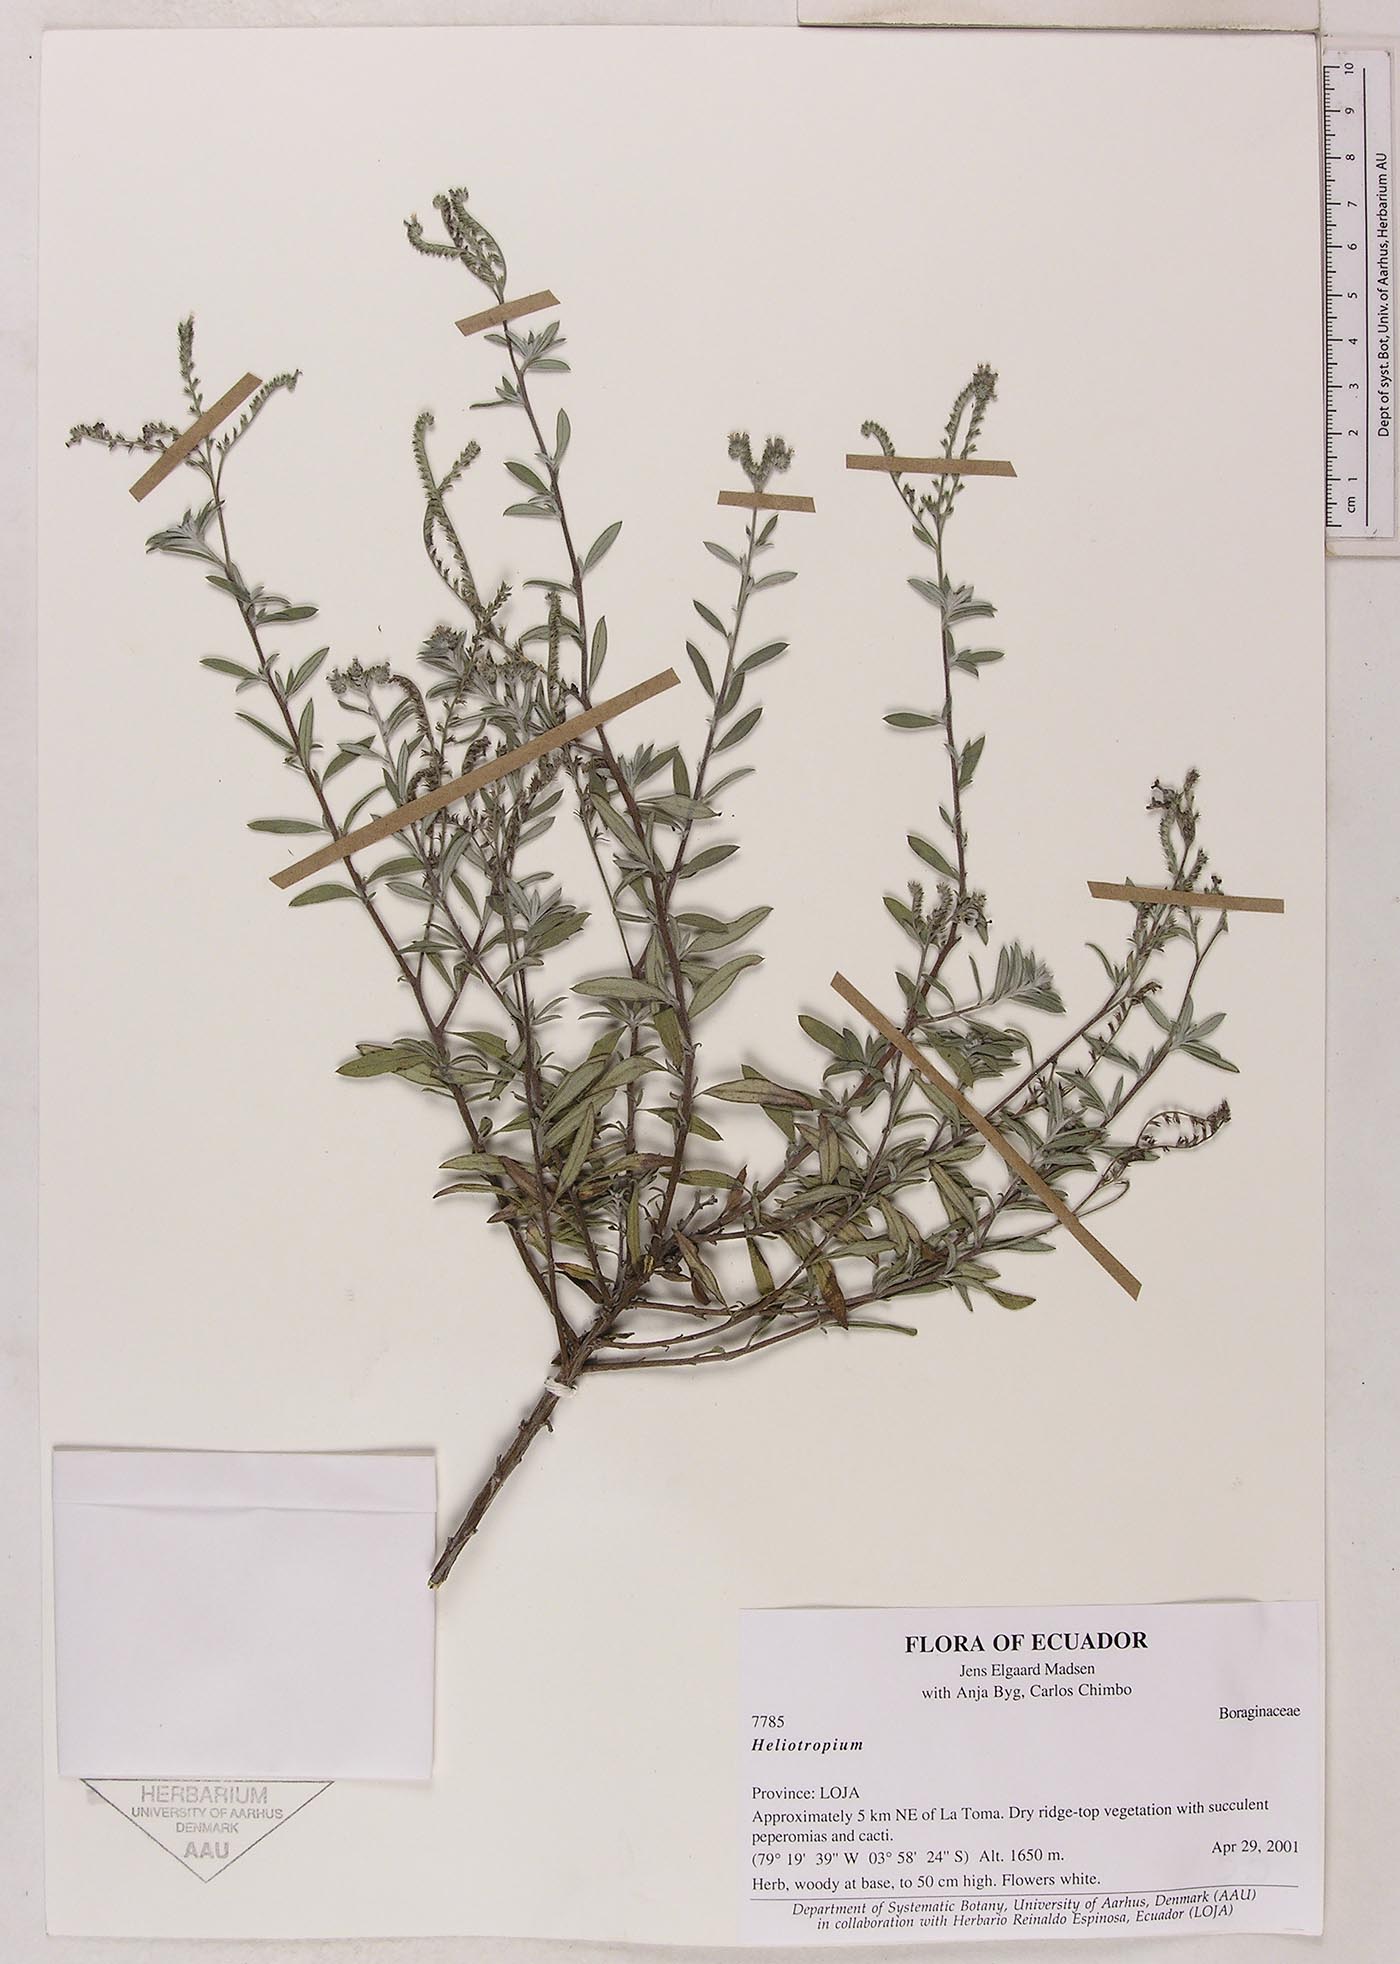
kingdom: Plantae
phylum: Tracheophyta
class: Magnoliopsida
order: Boraginales
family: Heliotropiaceae
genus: Euploca
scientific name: Euploca polyanthella
